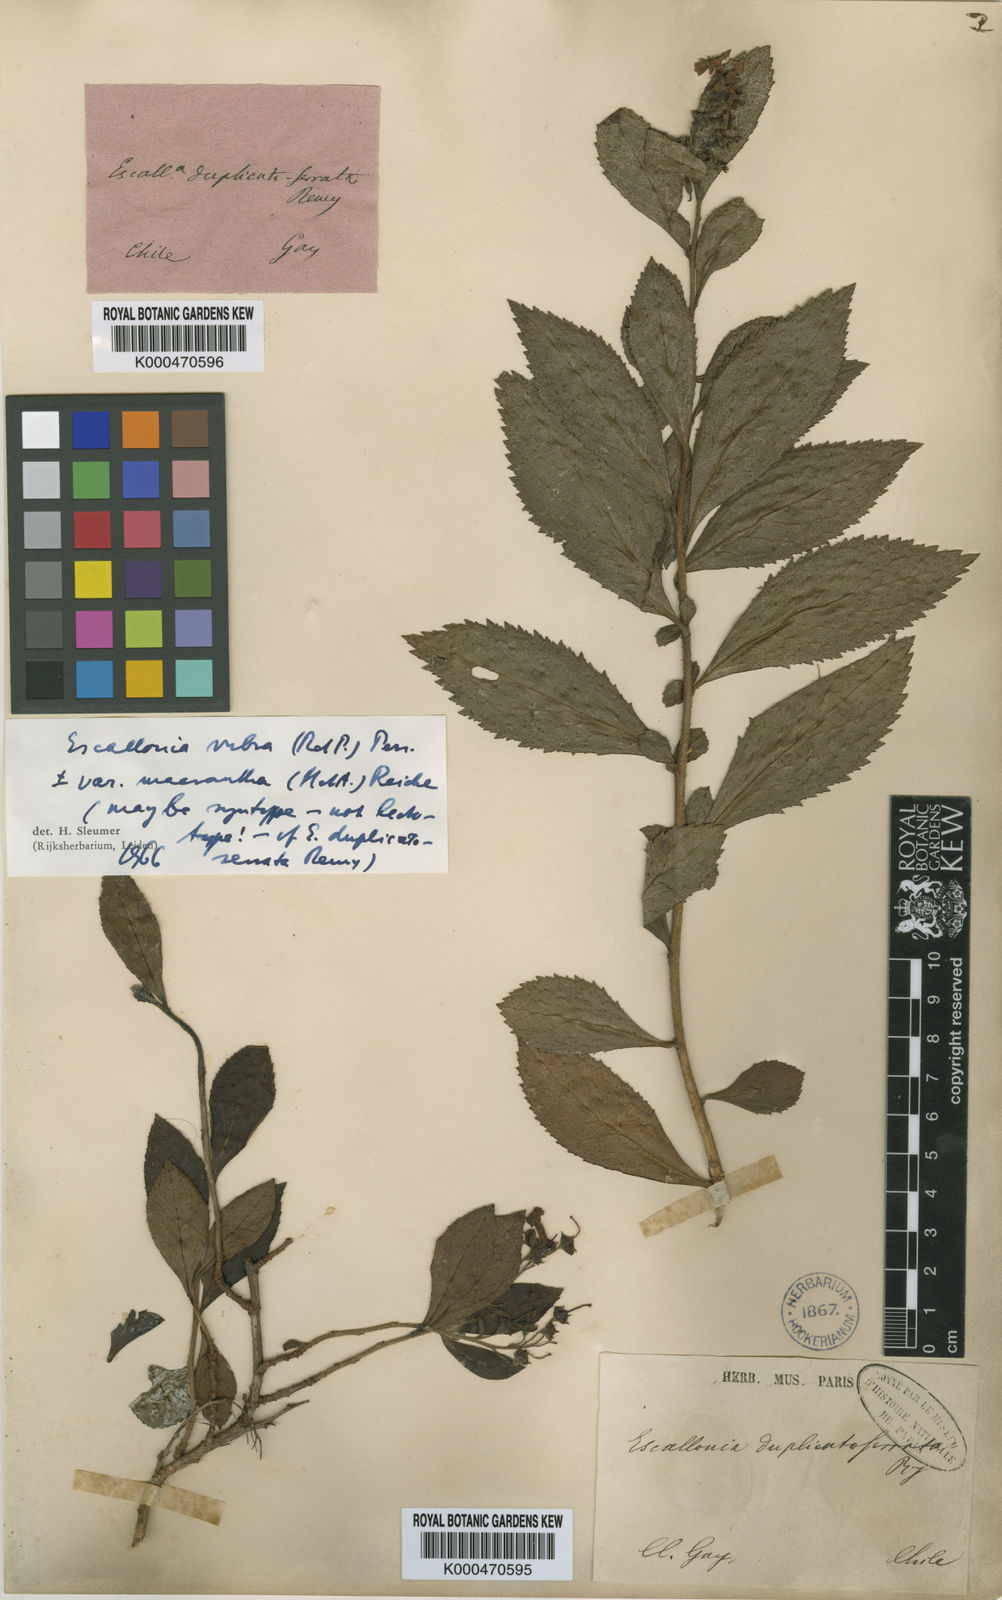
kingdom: Plantae
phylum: Tracheophyta
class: Magnoliopsida
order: Escalloniales
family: Escalloniaceae
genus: Escallonia
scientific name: Escallonia rubra
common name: Redclaws
